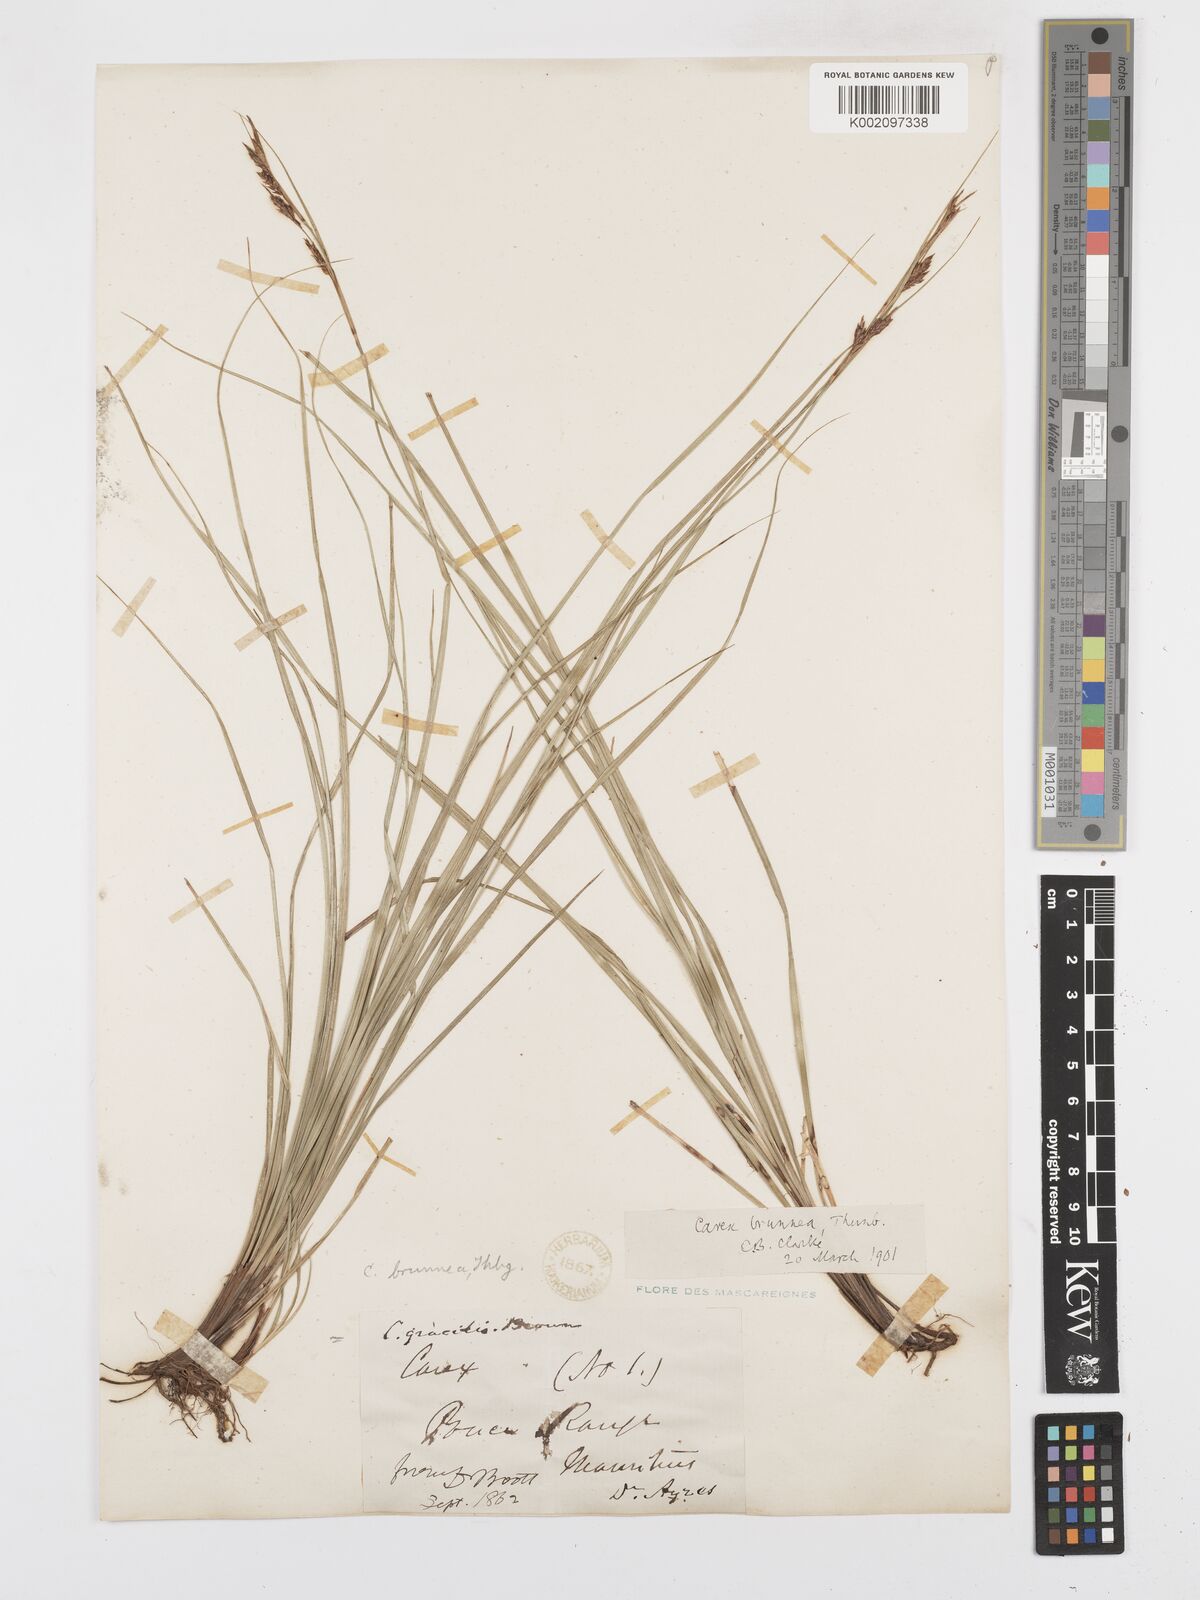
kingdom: Plantae
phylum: Tracheophyta
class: Liliopsida
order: Poales
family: Cyperaceae
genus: Carex
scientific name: Carex brunnea
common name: Greater brown sedge
